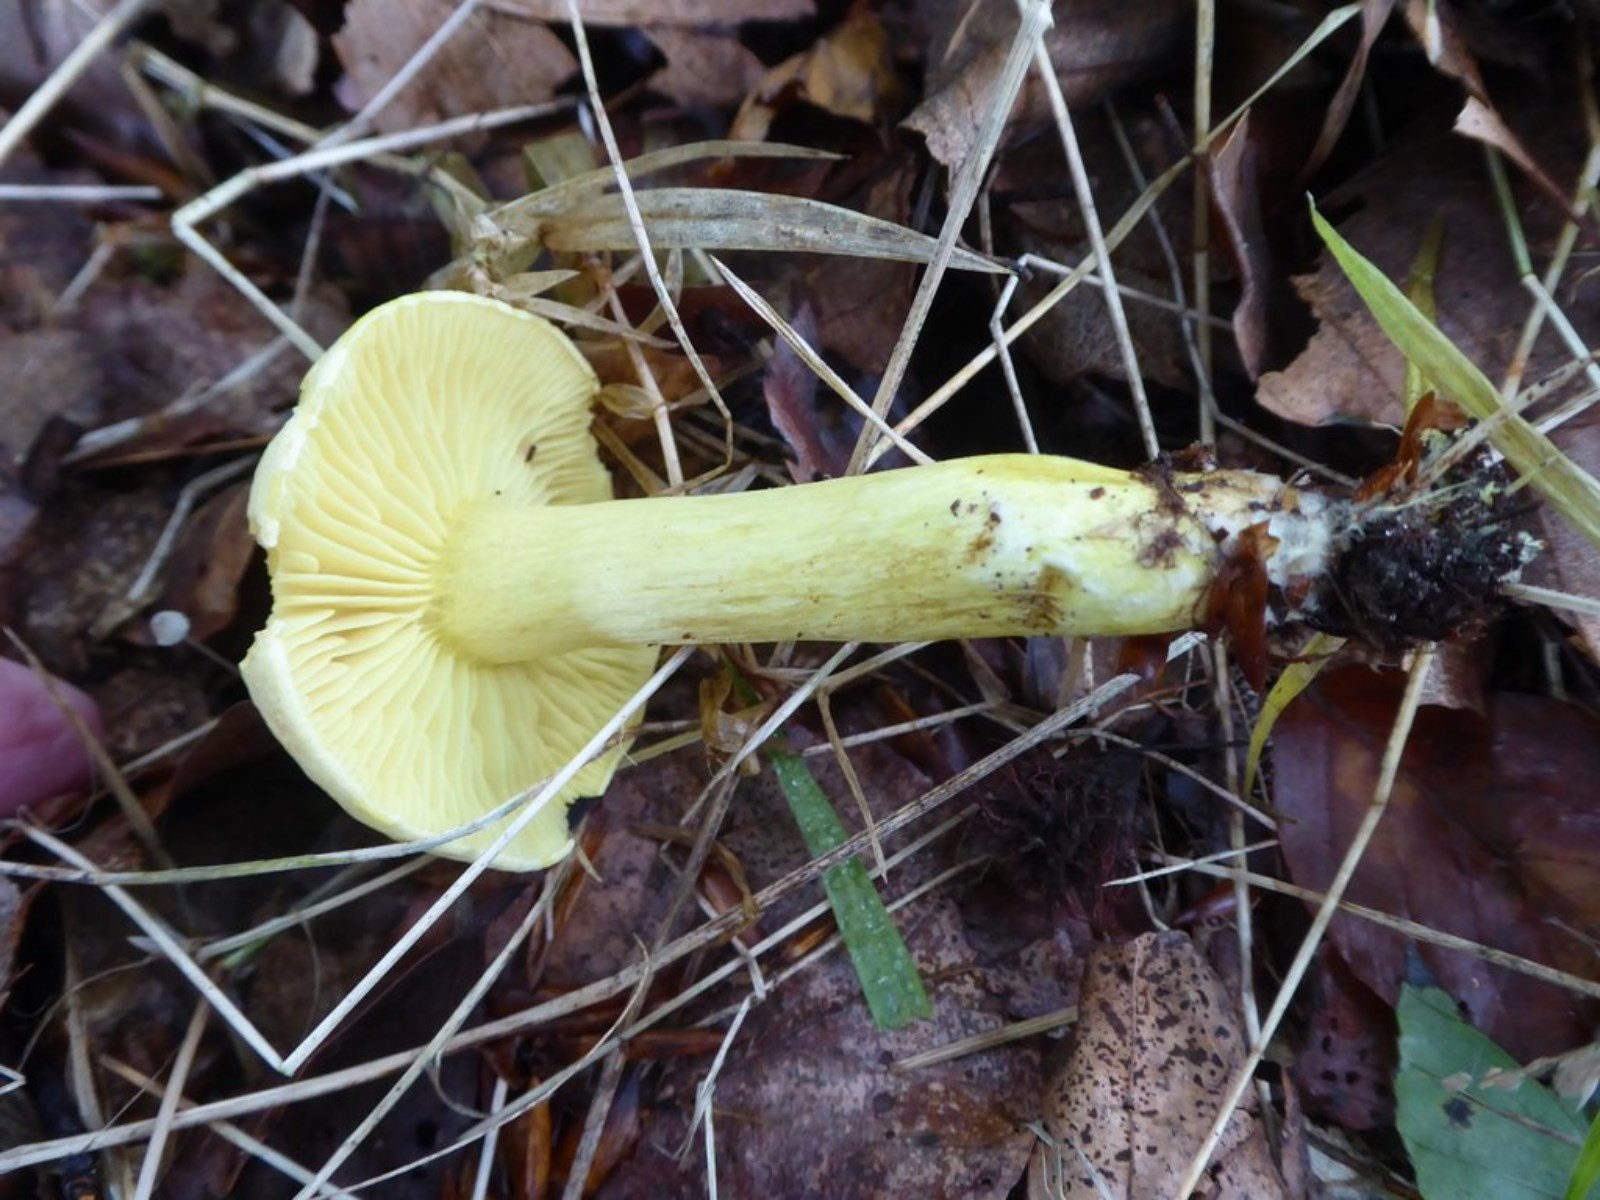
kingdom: Fungi
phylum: Basidiomycota
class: Agaricomycetes
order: Agaricales
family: Tricholomataceae
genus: Tricholoma
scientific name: Tricholoma sulphureum
